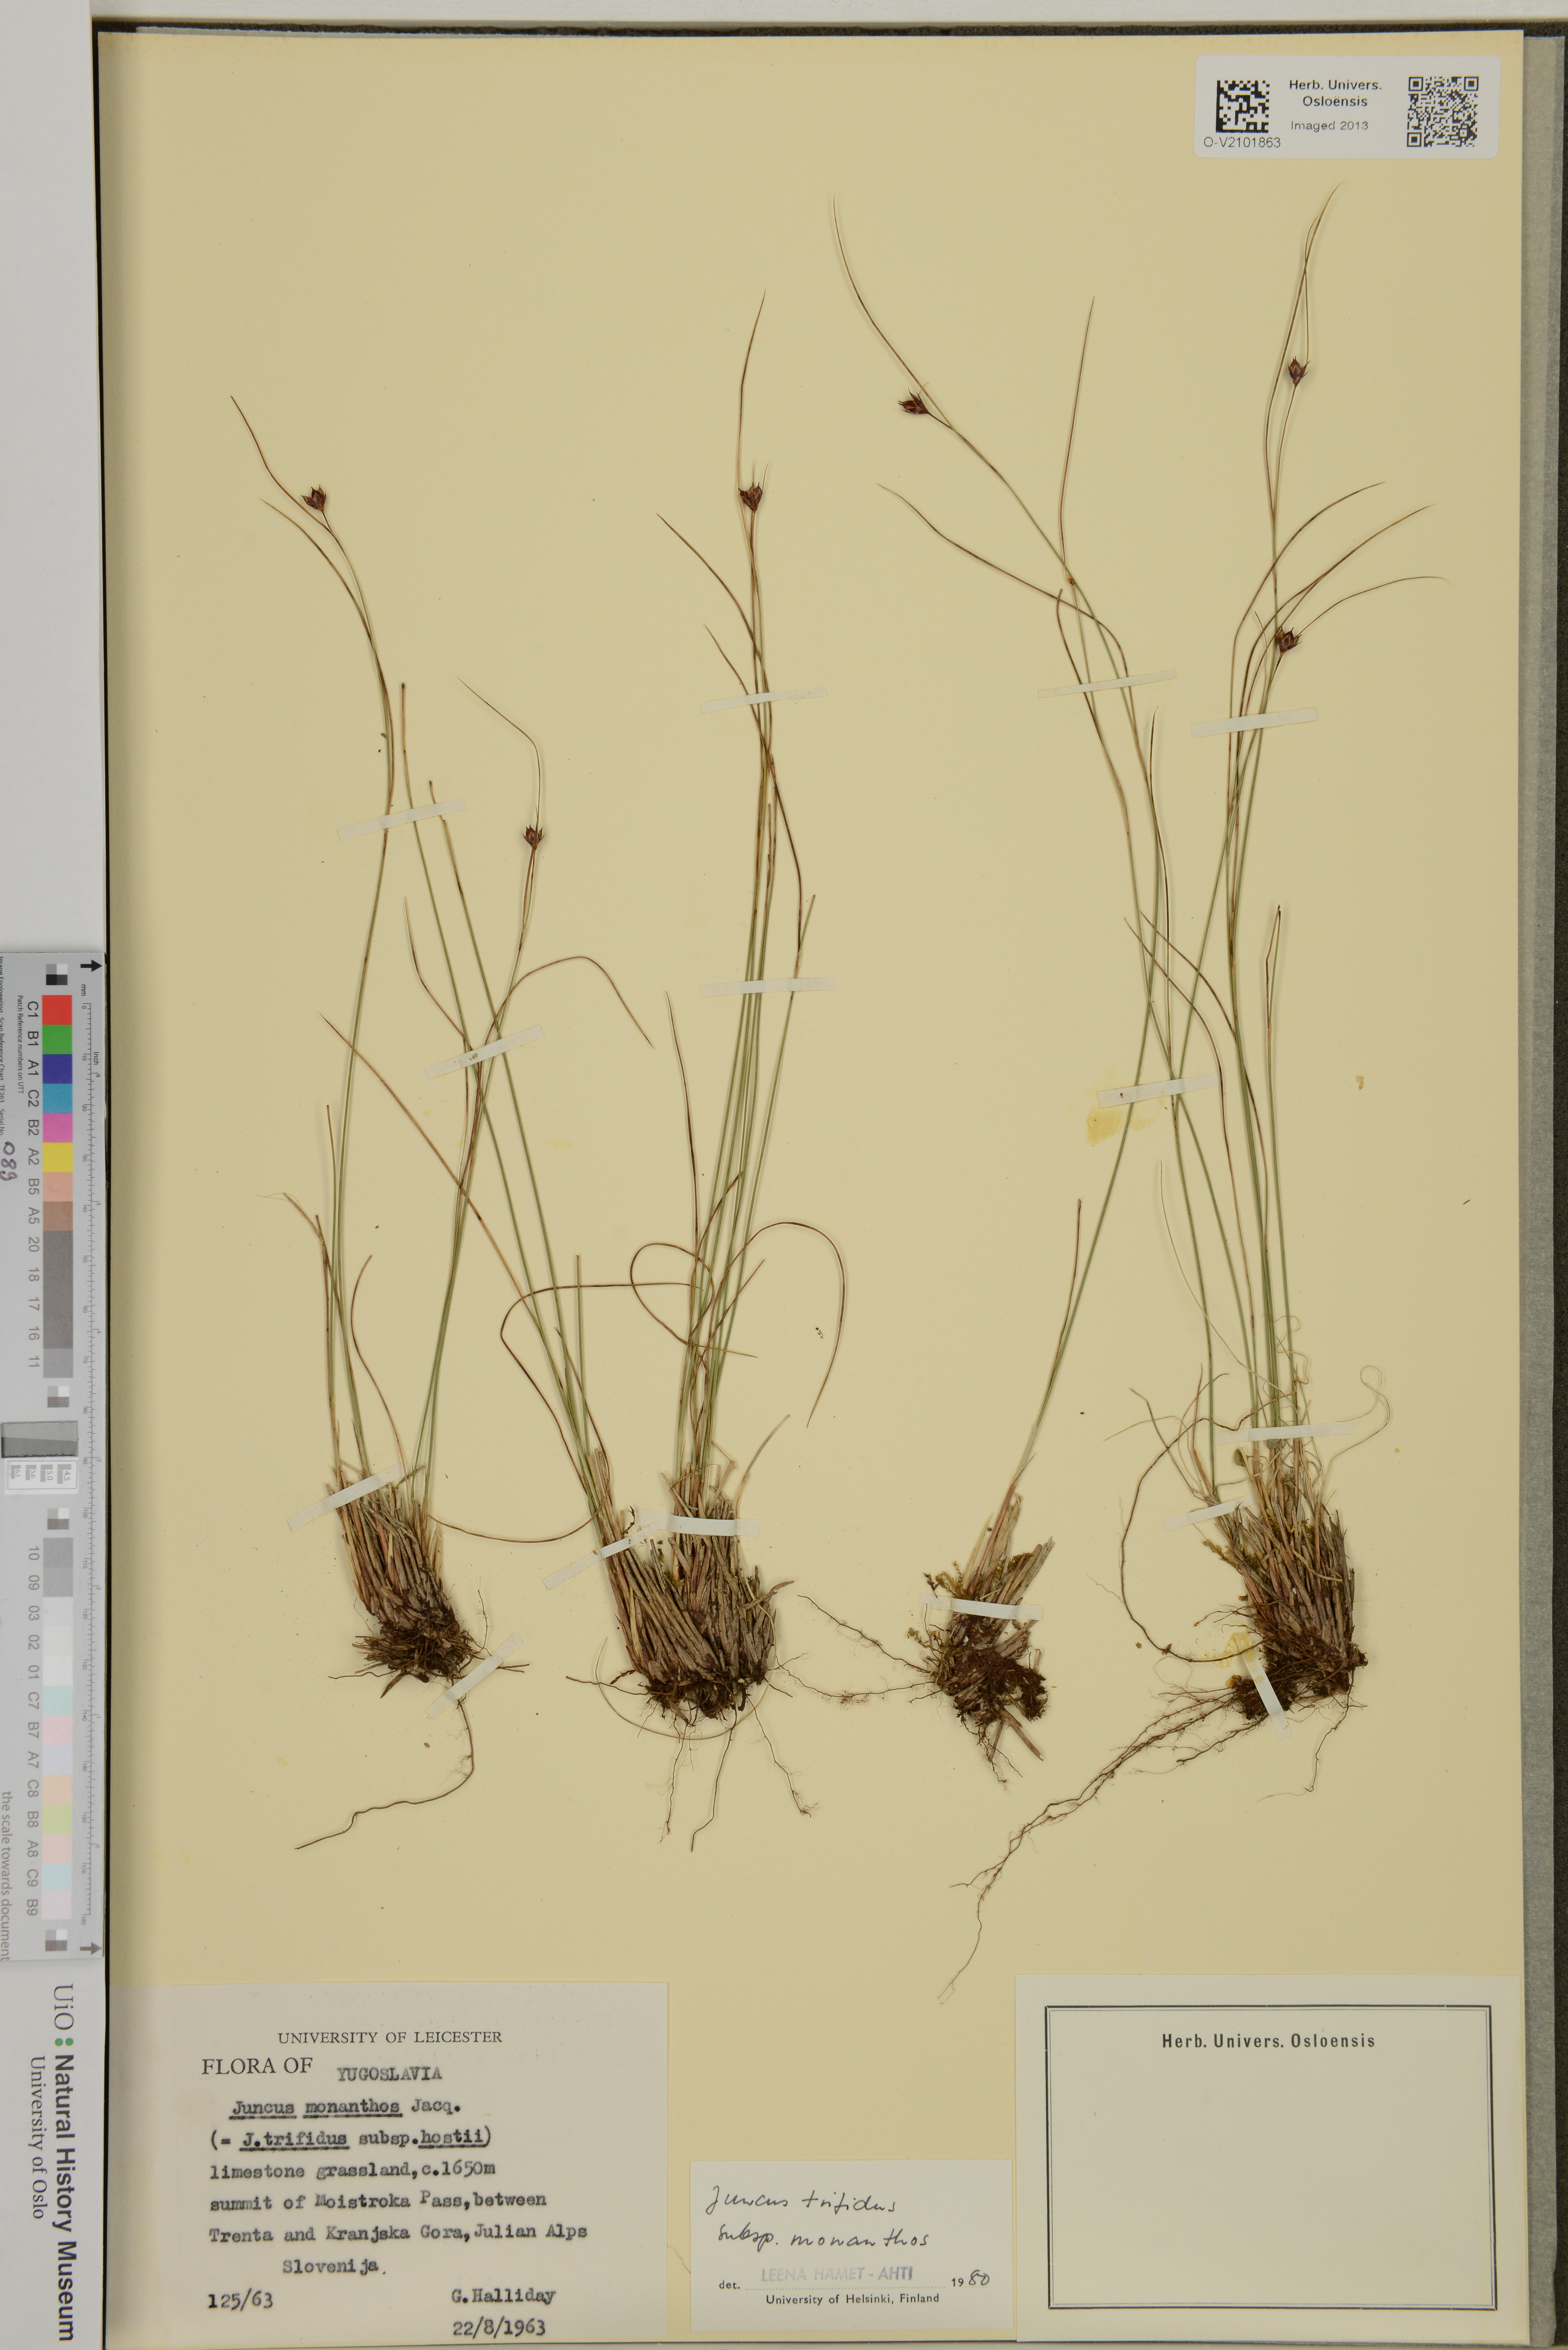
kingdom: Plantae
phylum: Tracheophyta
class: Liliopsida
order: Poales
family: Juncaceae
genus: Oreojuncus
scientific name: Oreojuncus trifidus
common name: Highland rush
